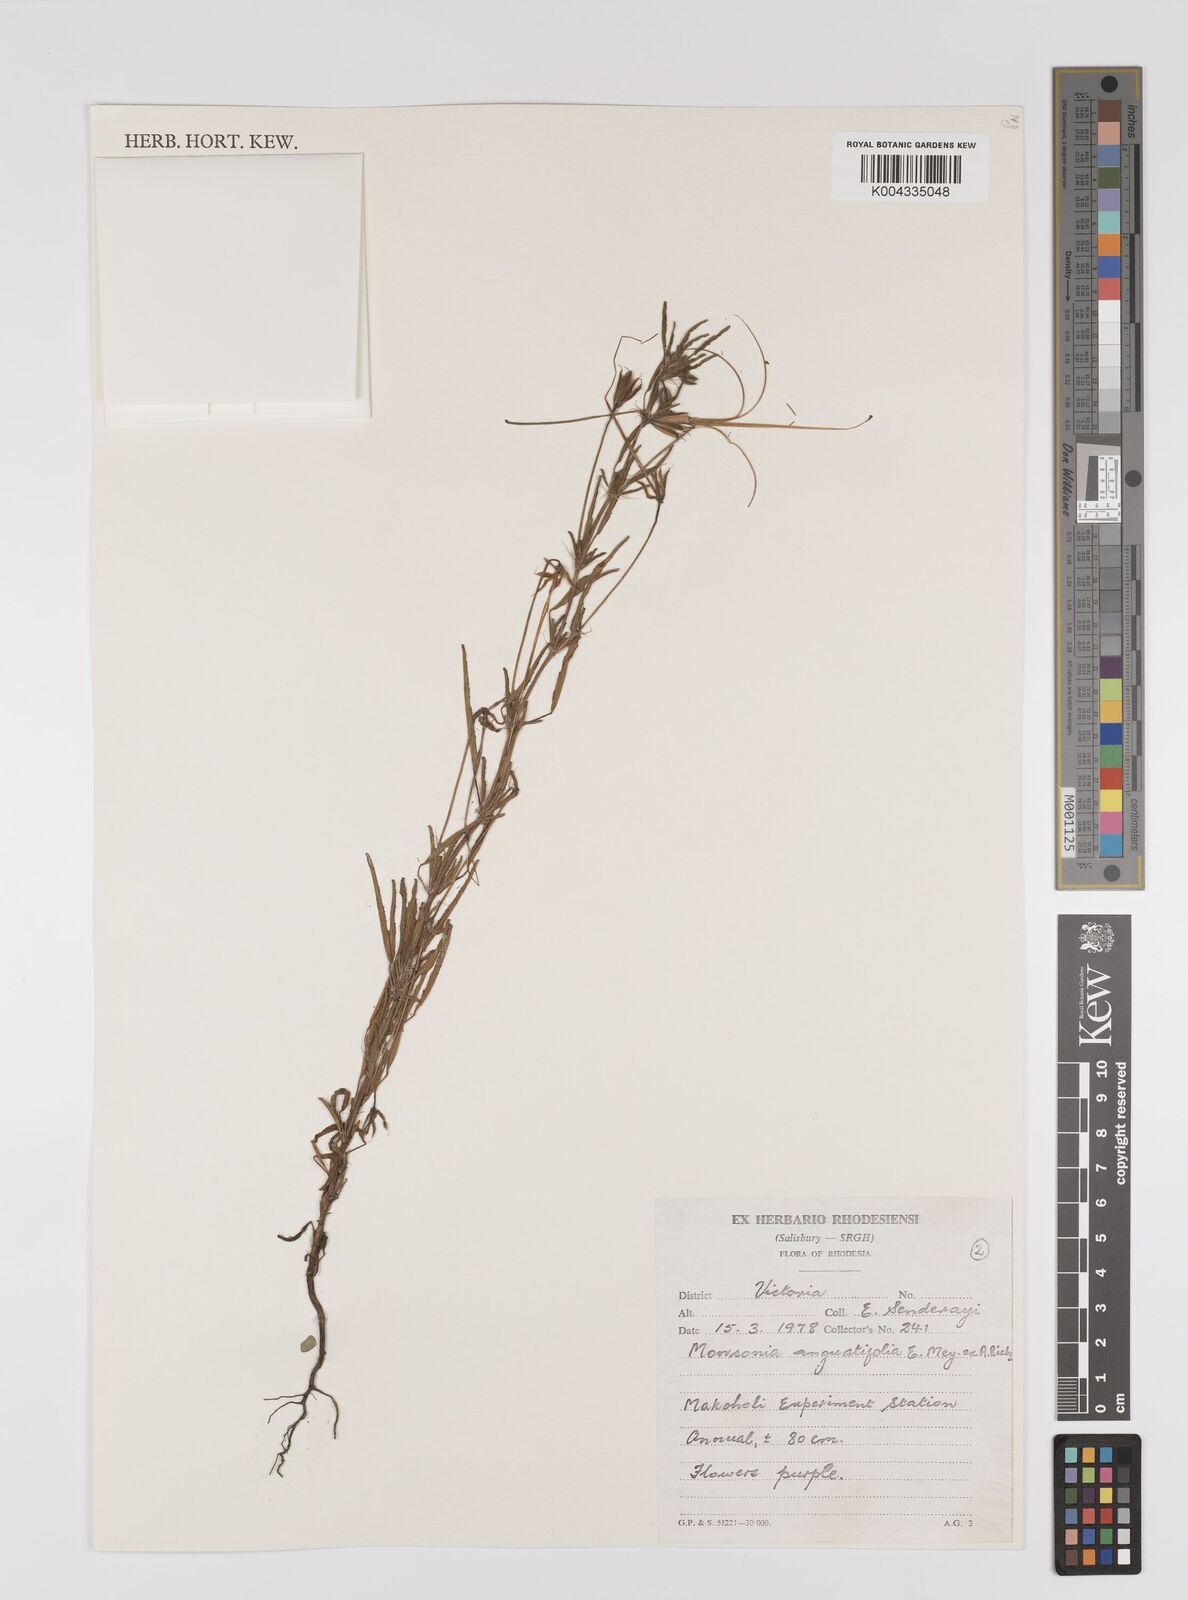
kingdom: Plantae
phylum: Tracheophyta
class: Magnoliopsida
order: Geraniales
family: Geraniaceae
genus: Monsonia
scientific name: Monsonia angustifolia
